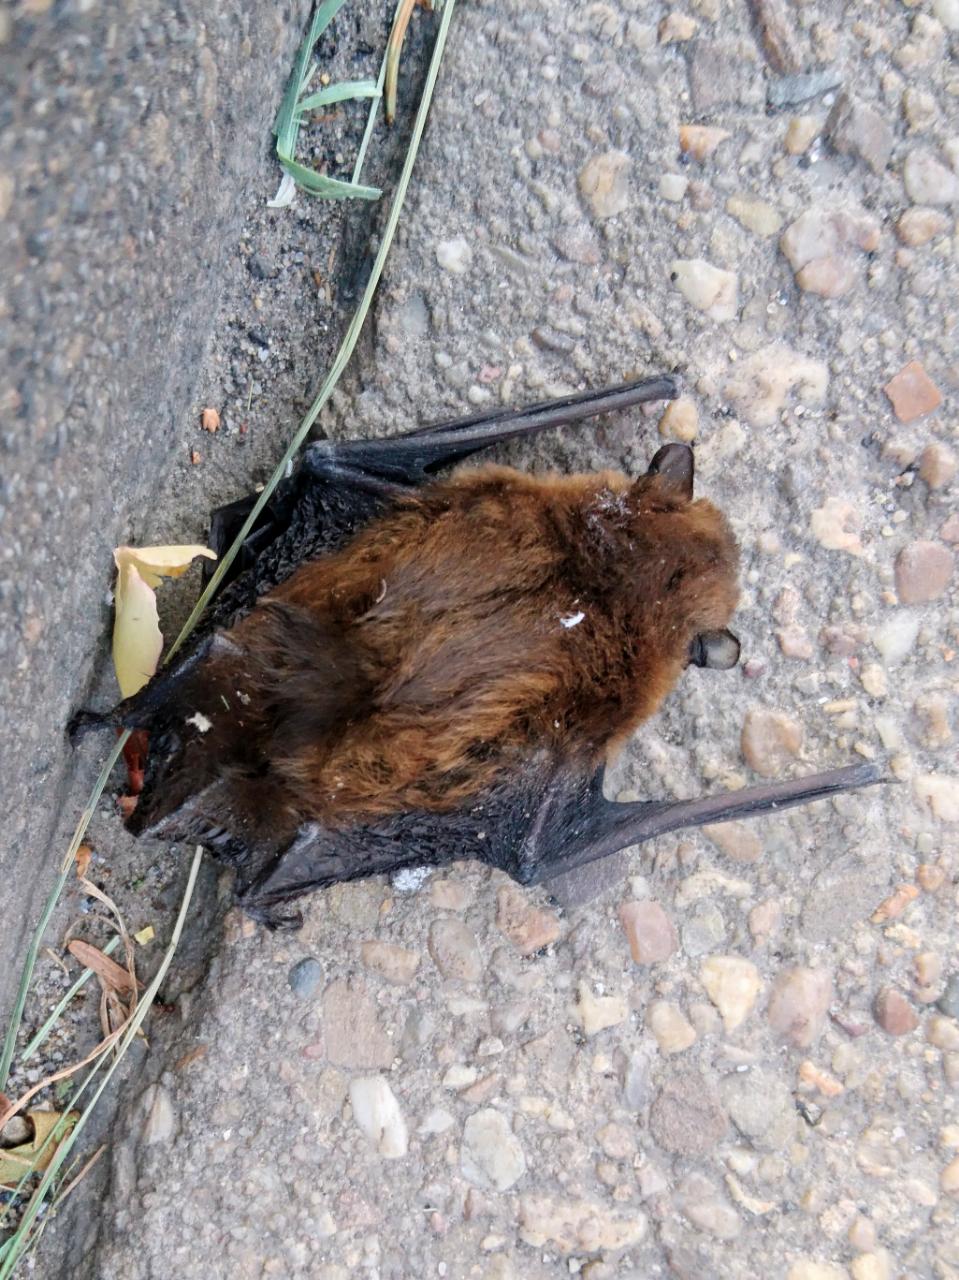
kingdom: Animalia
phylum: Chordata
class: Mammalia
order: Chiroptera
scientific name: Chiroptera
